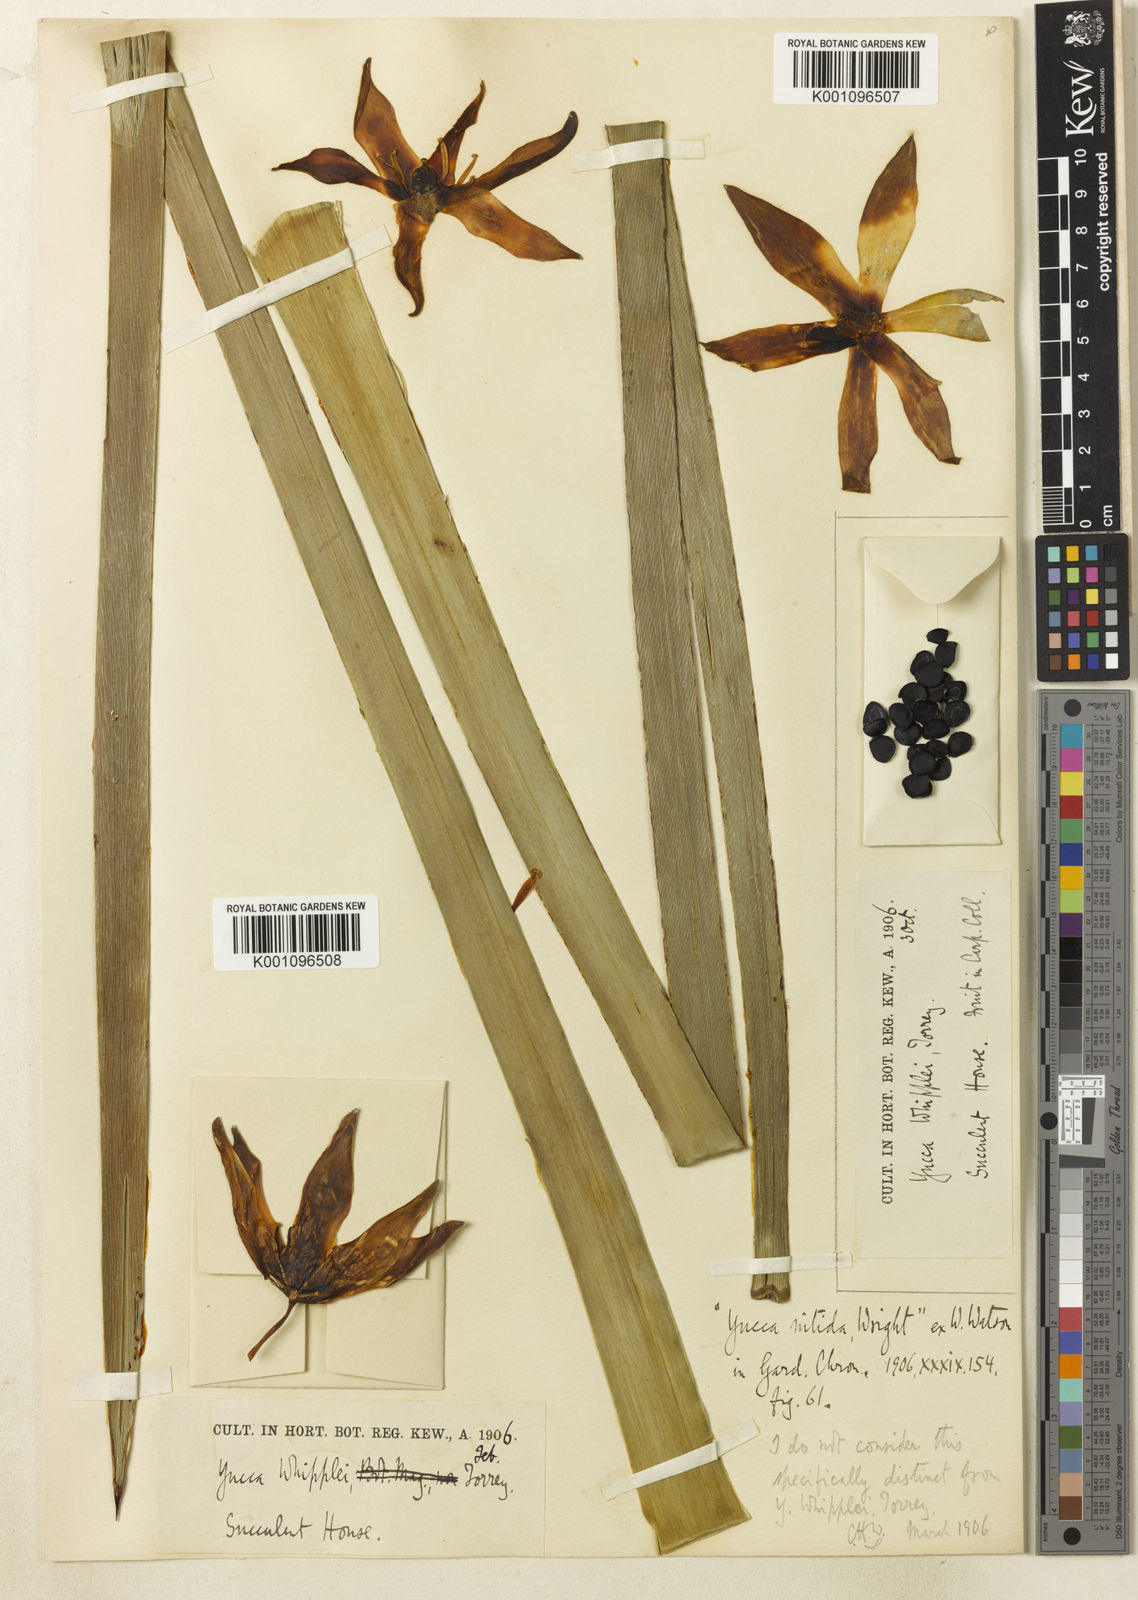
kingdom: Plantae
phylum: Tracheophyta
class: Liliopsida
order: Asparagales
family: Asparagaceae
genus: Hesperoyucca
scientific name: Hesperoyucca whipplei
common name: Our lord's-candle
